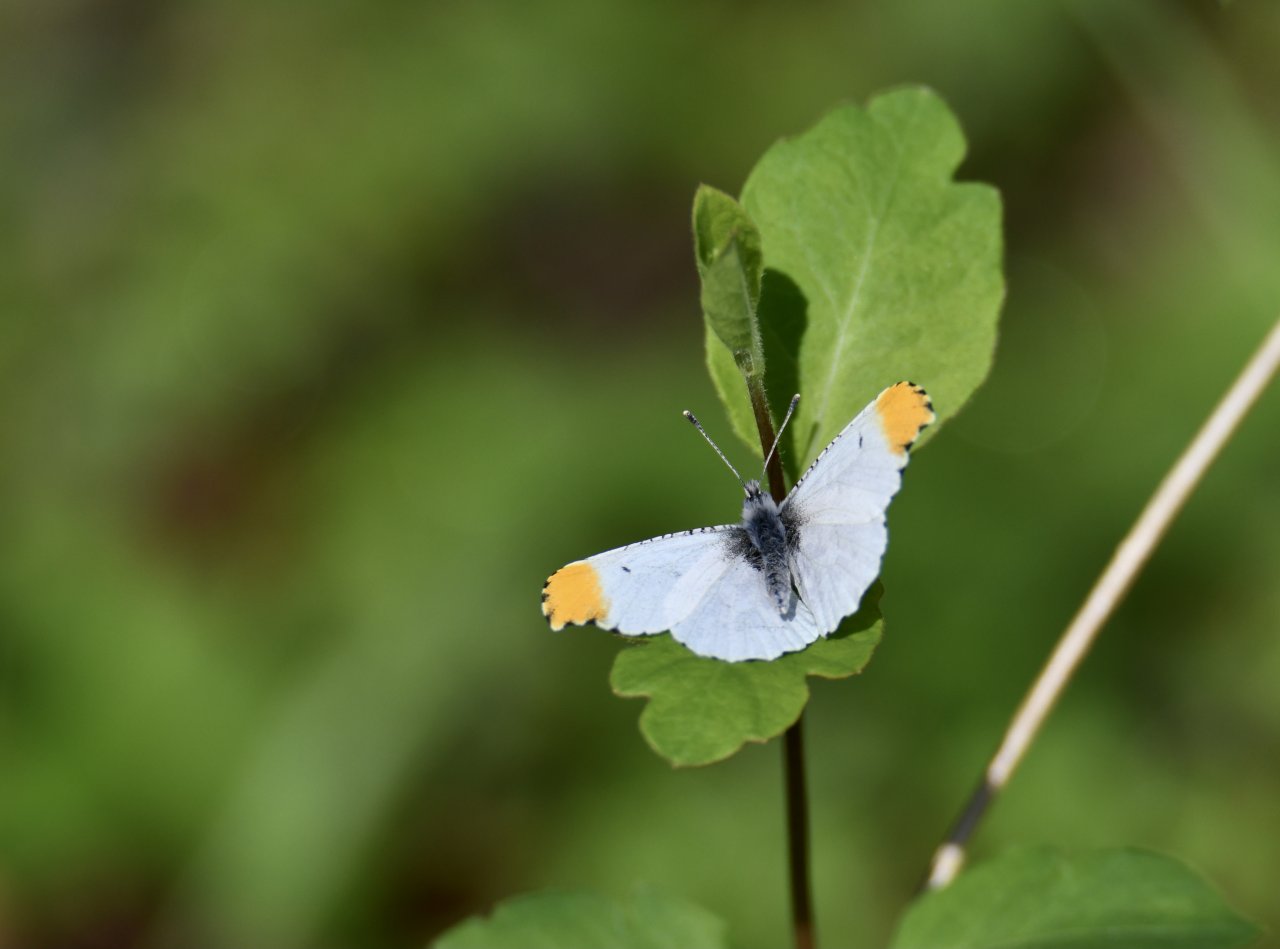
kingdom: Animalia
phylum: Arthropoda
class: Insecta
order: Lepidoptera
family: Pieridae
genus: Anthocharis
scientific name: Anthocharis midea
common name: Falcate Orangetip
